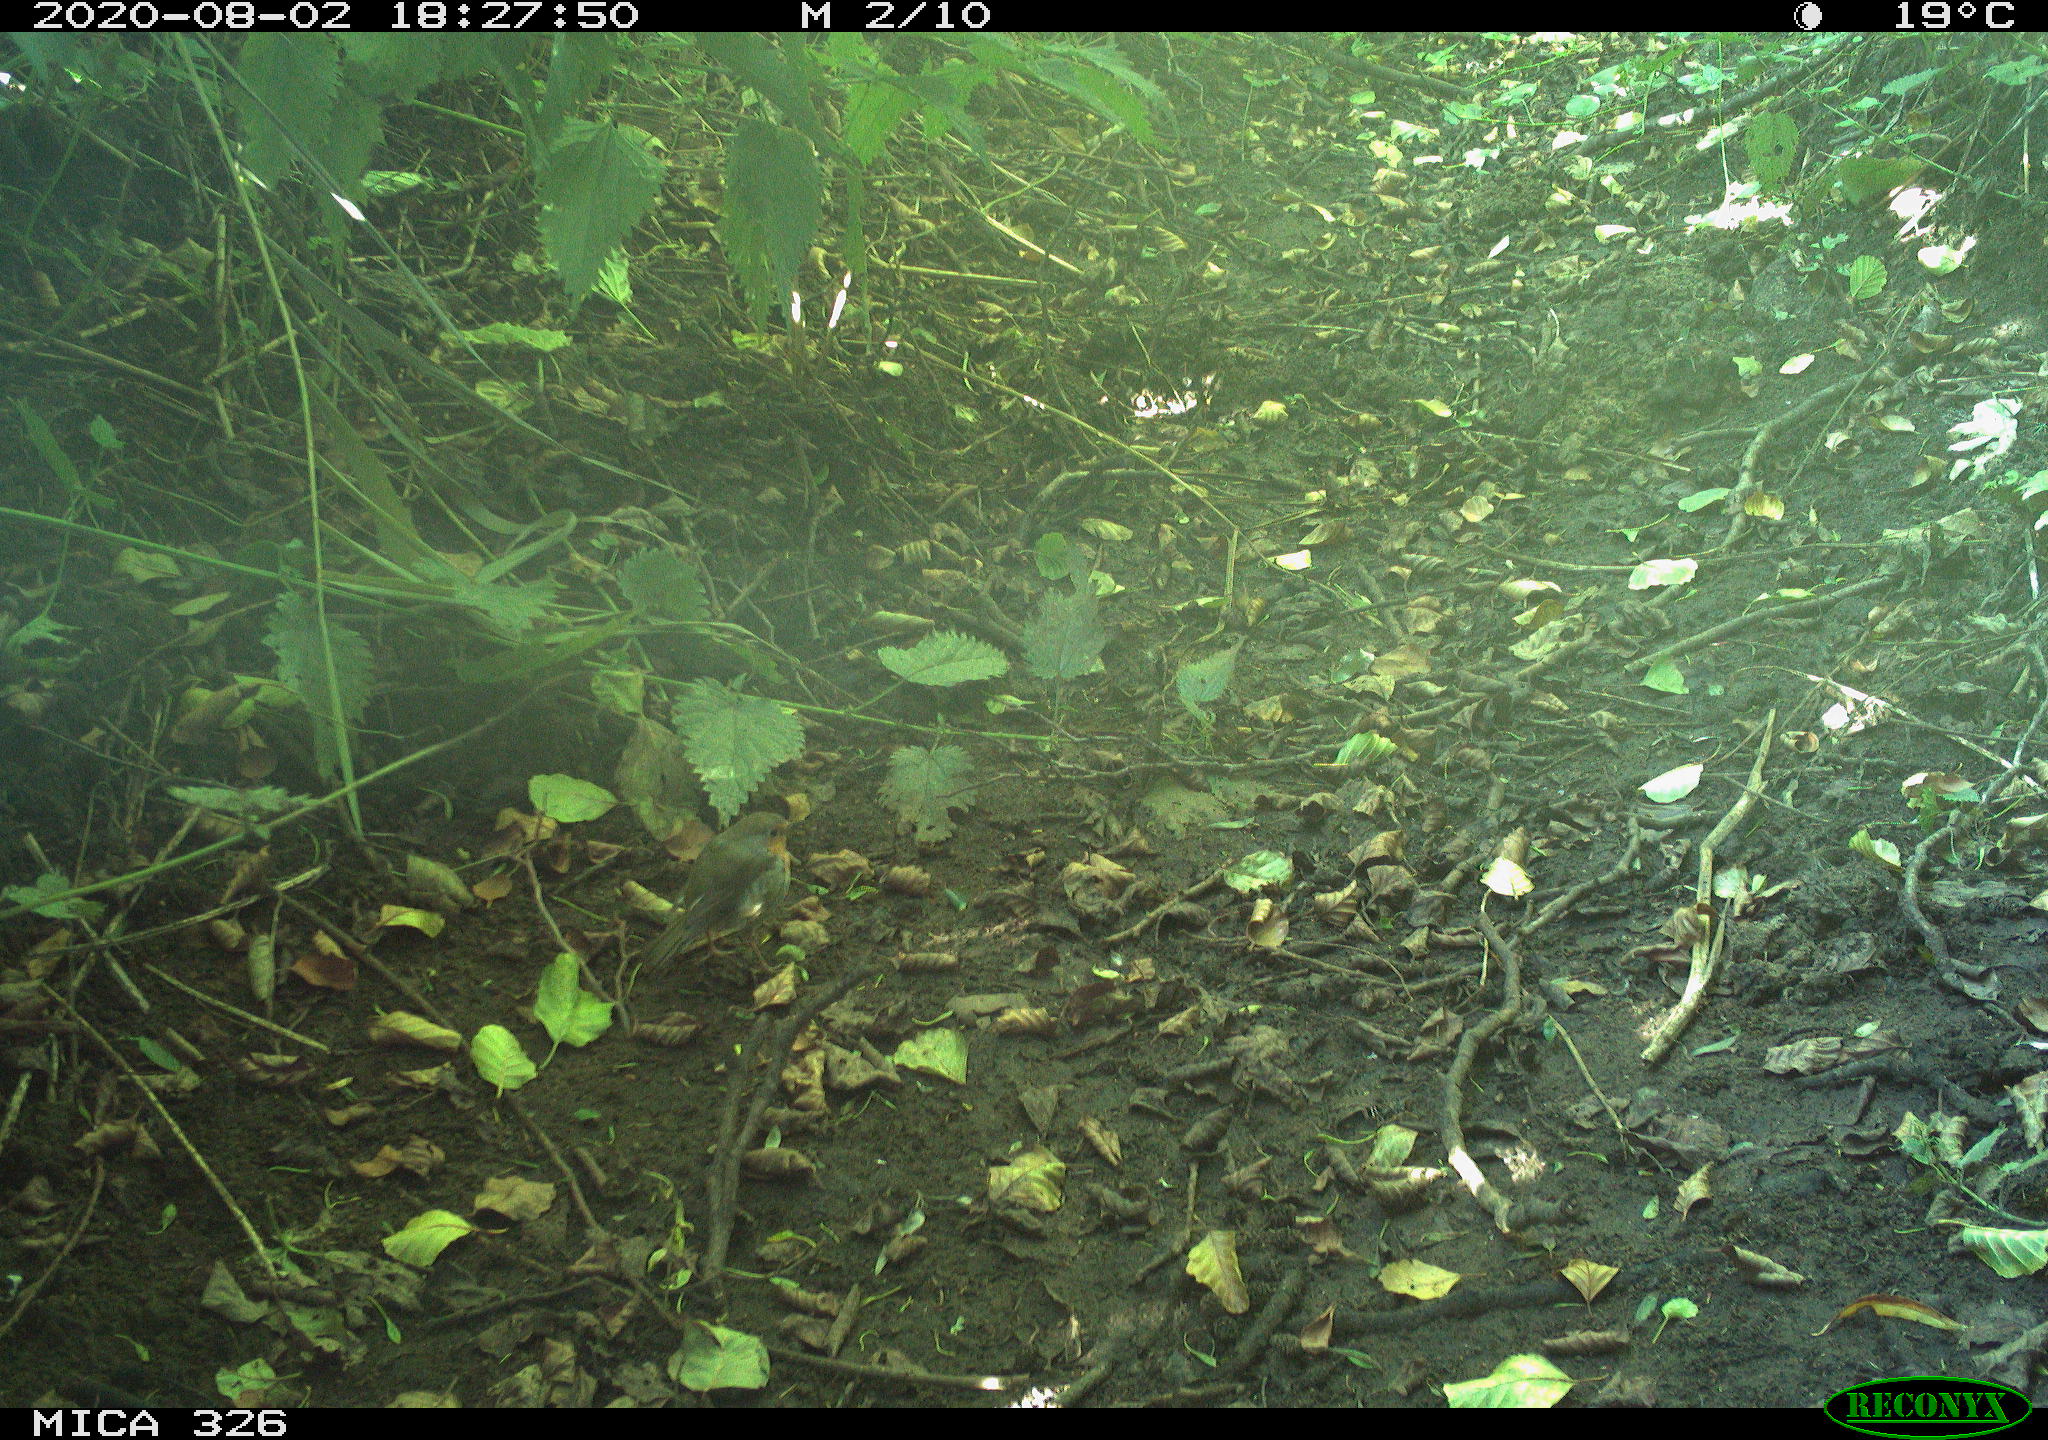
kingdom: Animalia
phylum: Chordata
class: Aves
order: Passeriformes
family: Muscicapidae
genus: Erithacus
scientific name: Erithacus rubecula
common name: European robin
